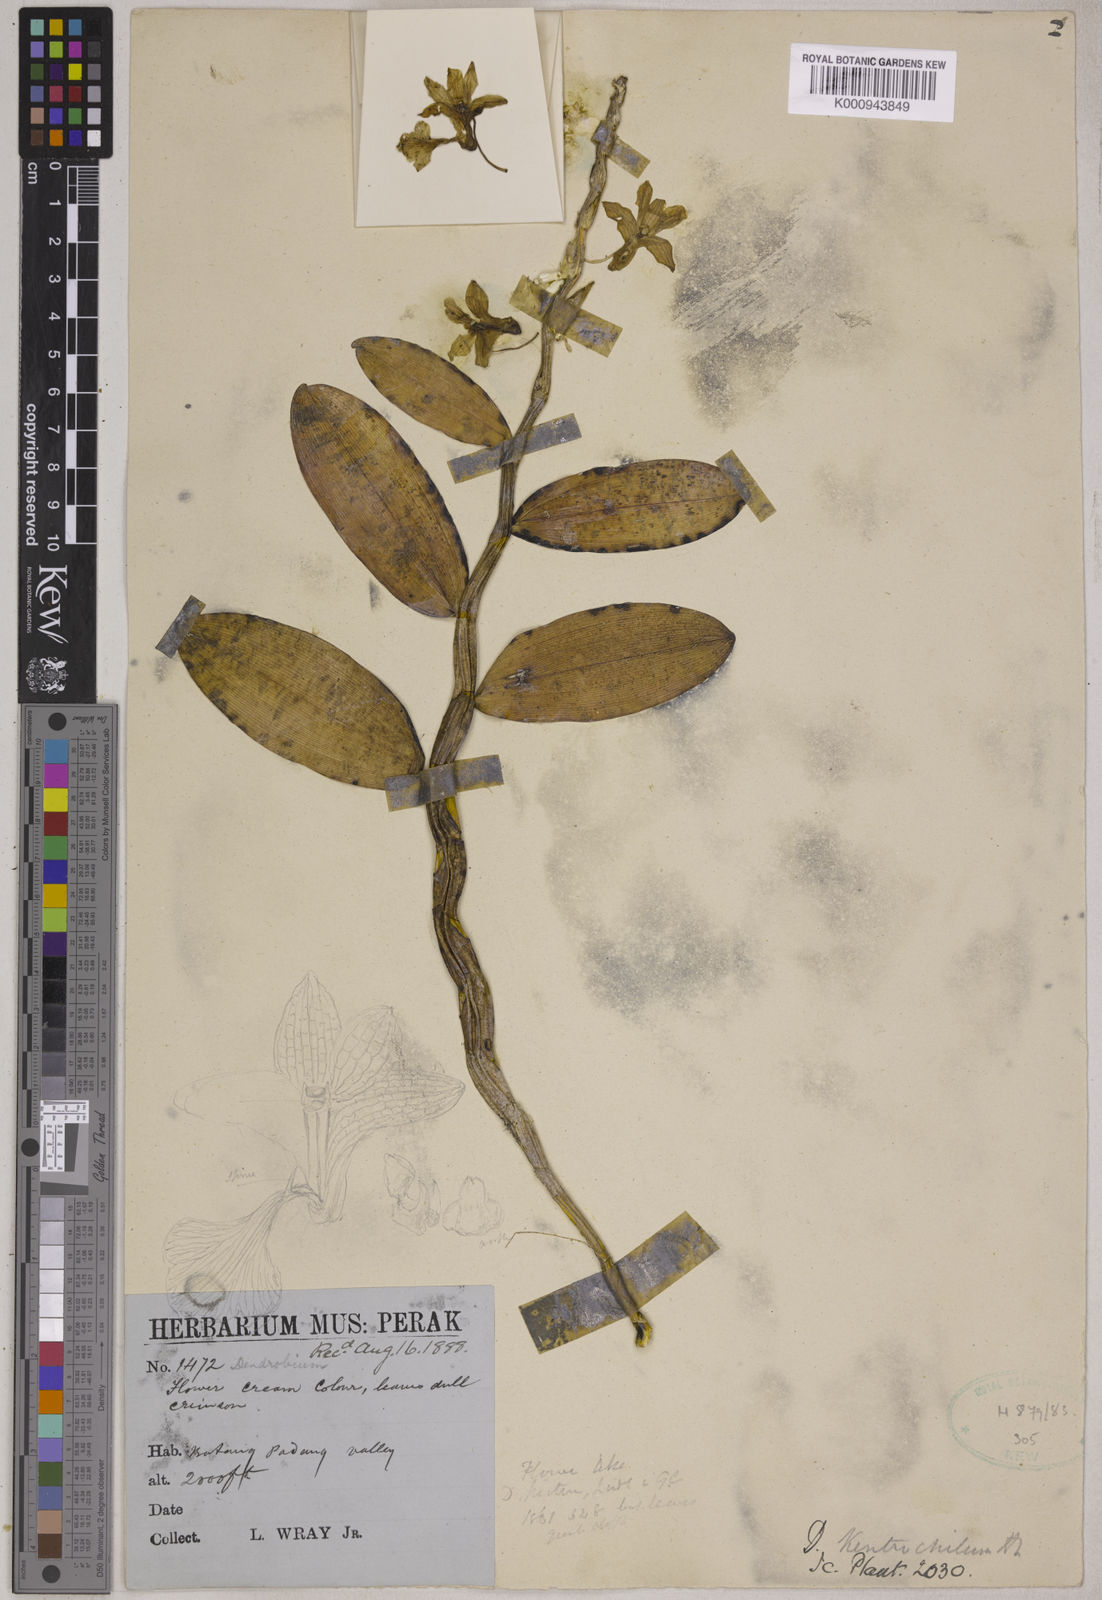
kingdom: Plantae
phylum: Tracheophyta
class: Liliopsida
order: Asparagales
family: Orchidaceae
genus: Dendrobium
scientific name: Dendrobium kentrochilum
